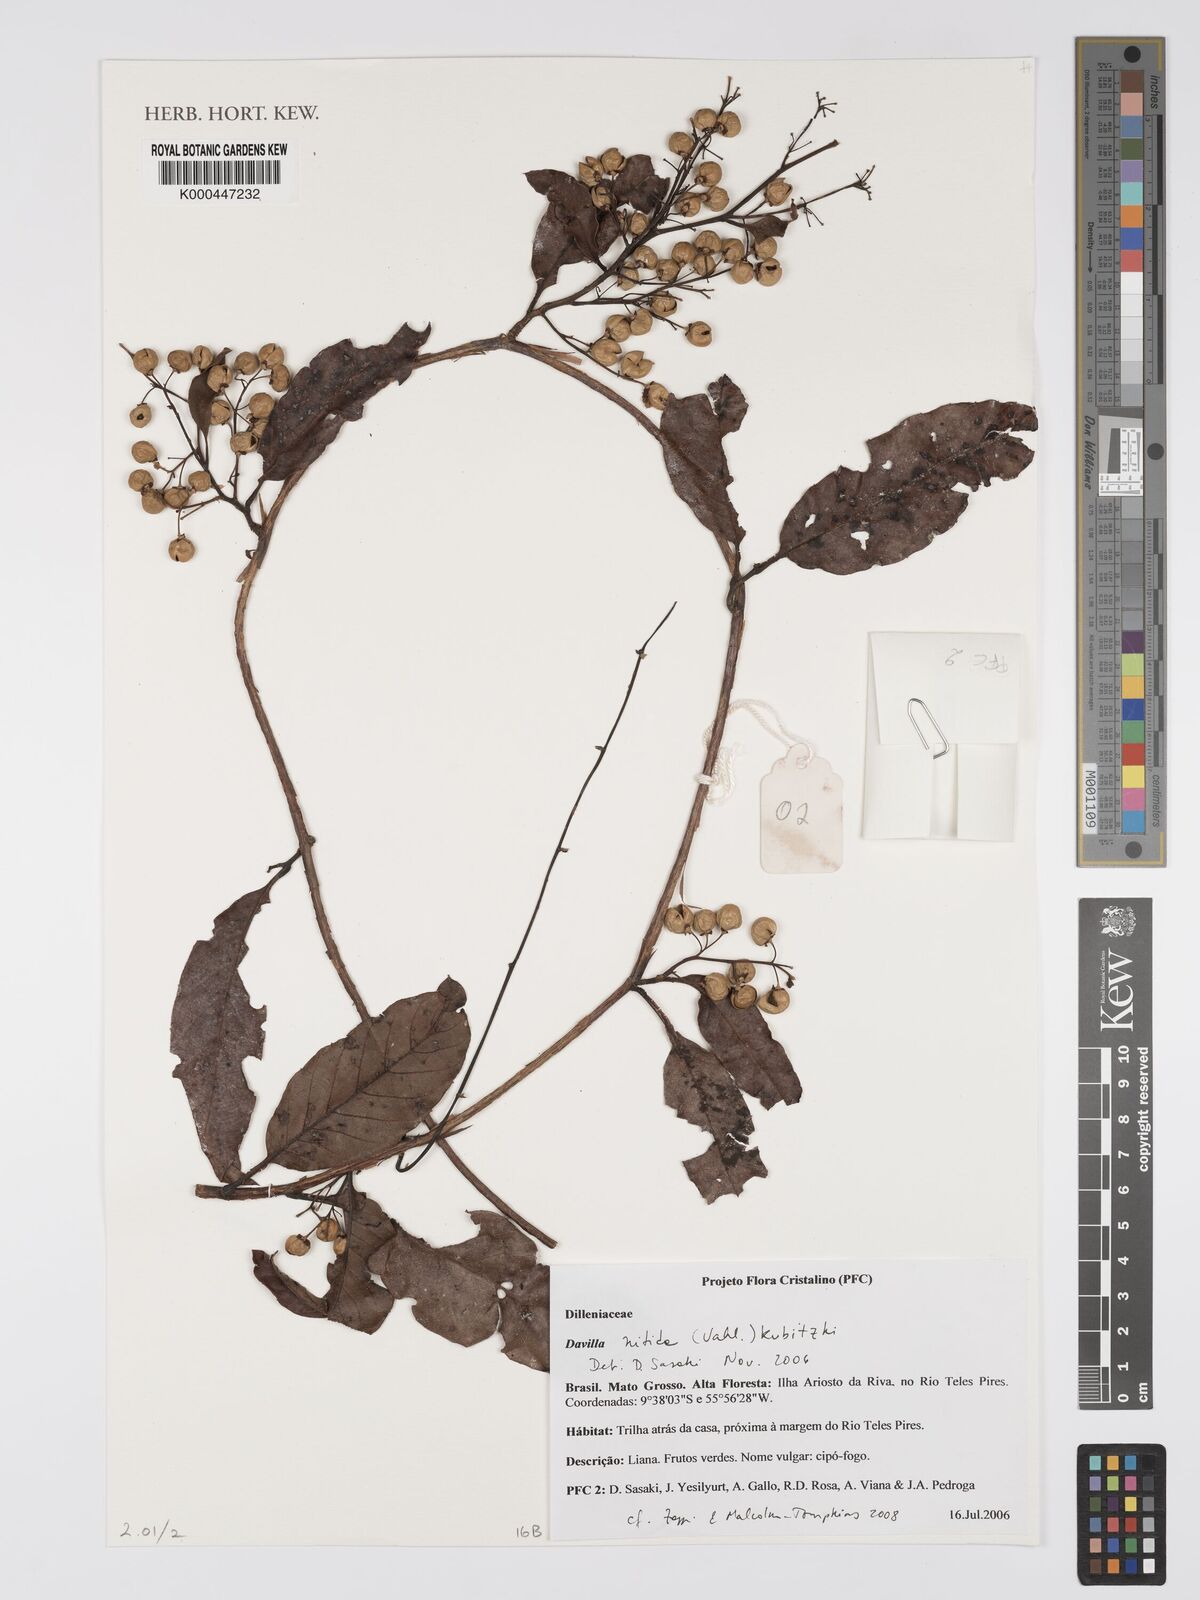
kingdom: Plantae
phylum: Tracheophyta
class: Magnoliopsida
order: Dilleniales
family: Dilleniaceae
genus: Davilla
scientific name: Davilla nitida
